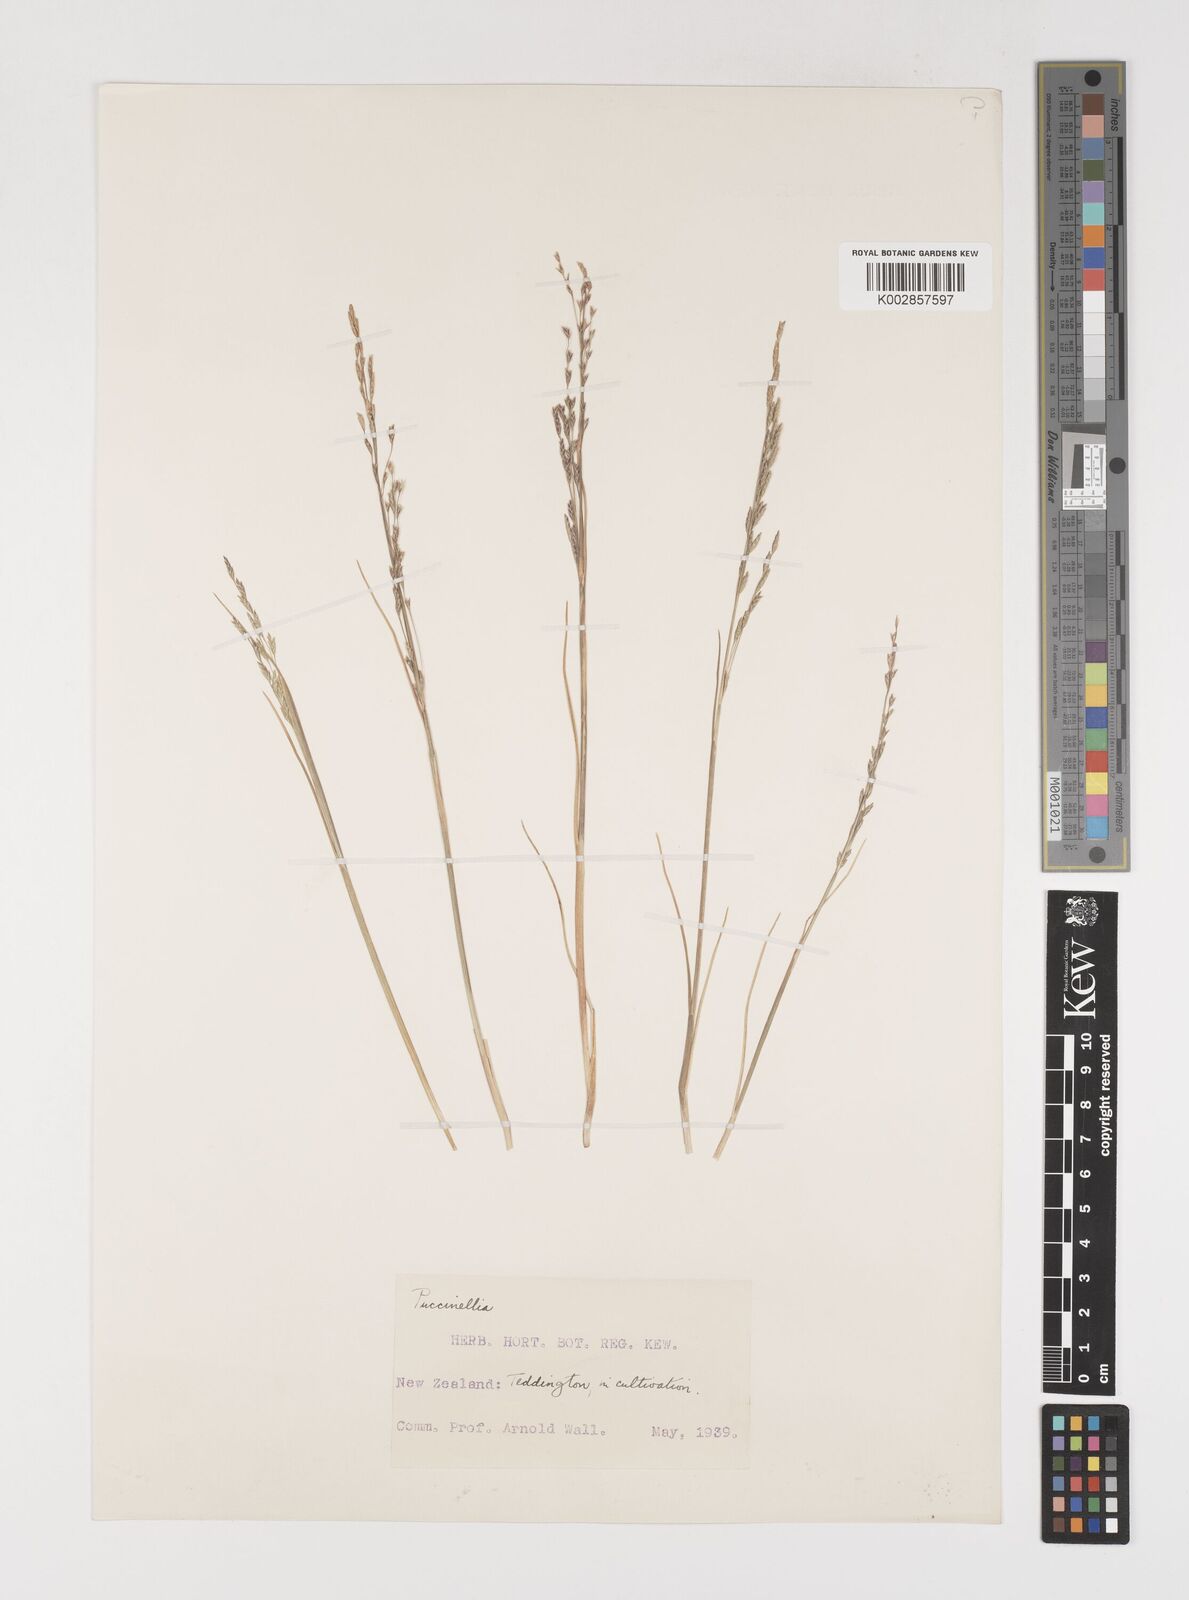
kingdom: Plantae
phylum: Tracheophyta
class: Liliopsida
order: Poales
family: Poaceae
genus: Puccinellia
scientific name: Puccinellia
